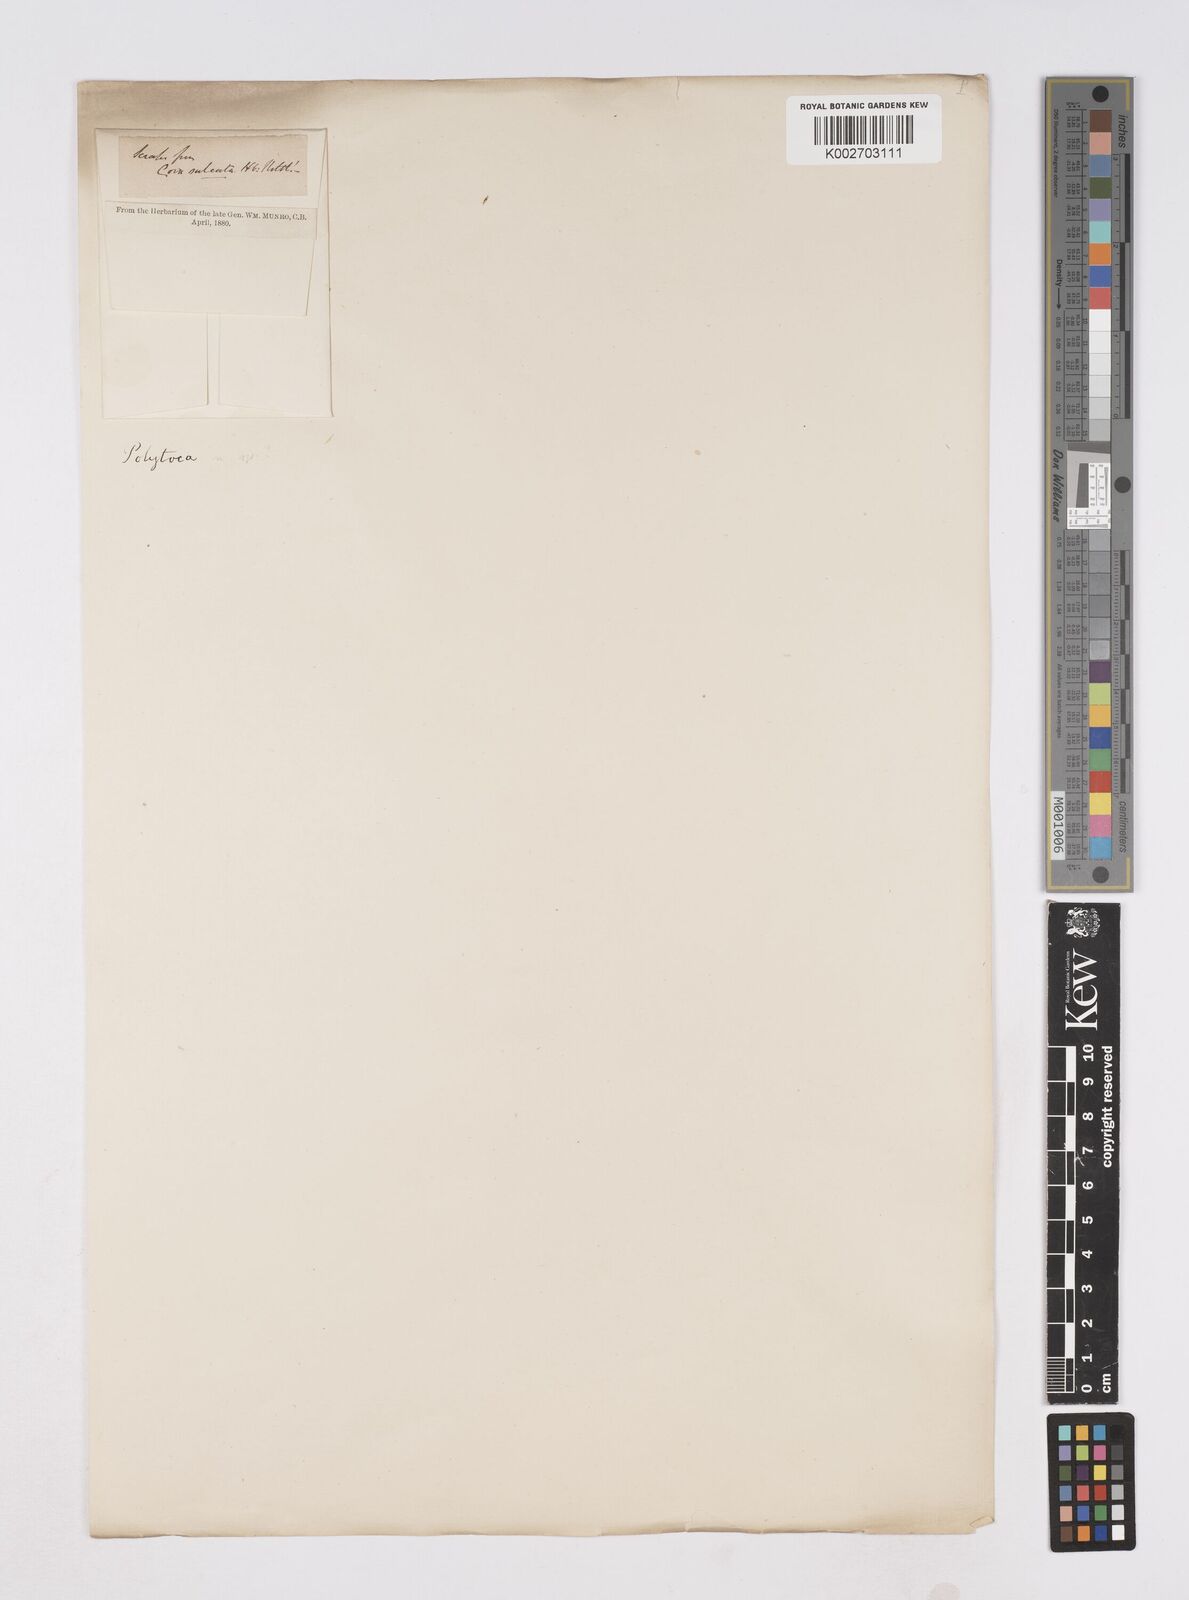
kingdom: Plantae
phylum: Tracheophyta
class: Liliopsida
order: Poales
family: Poaceae
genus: Polytoca
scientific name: Polytoca punctata
